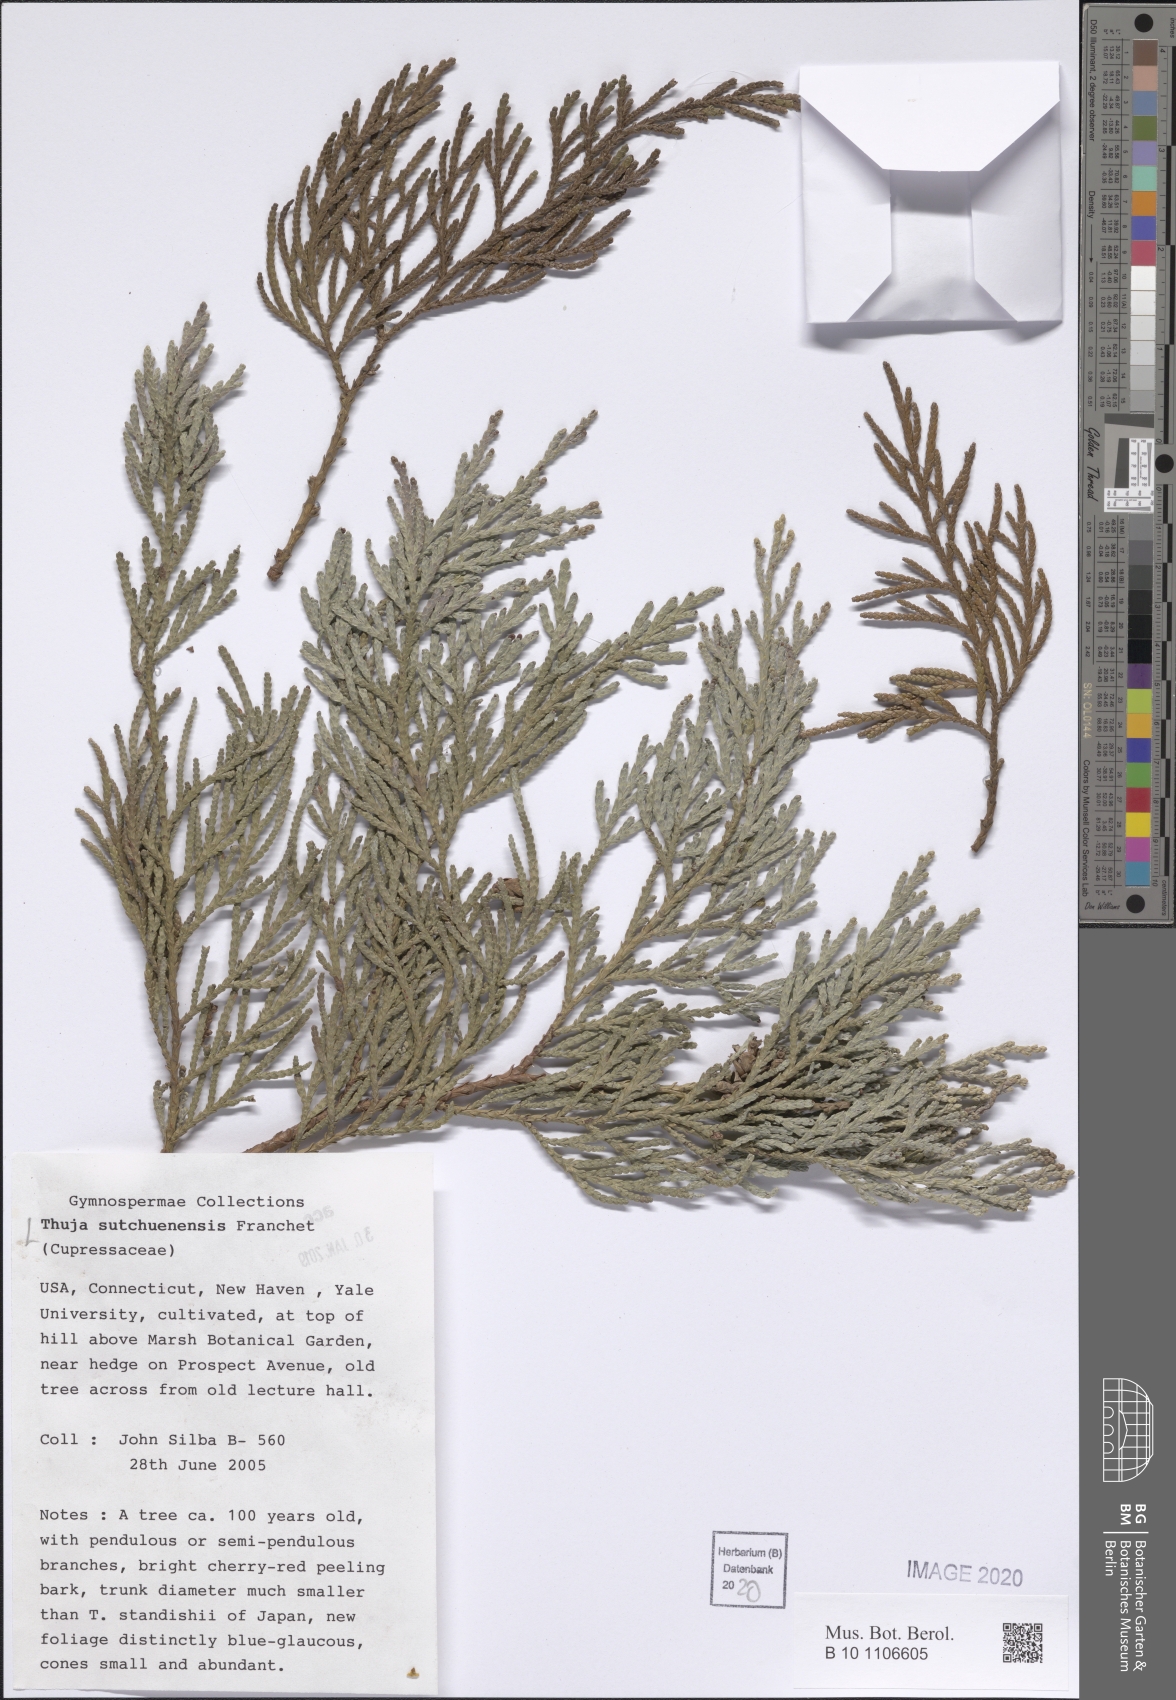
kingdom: Plantae
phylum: Tracheophyta
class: Pinopsida
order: Pinales
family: Cupressaceae
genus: Thuja
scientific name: Thuja sutchuenensis
